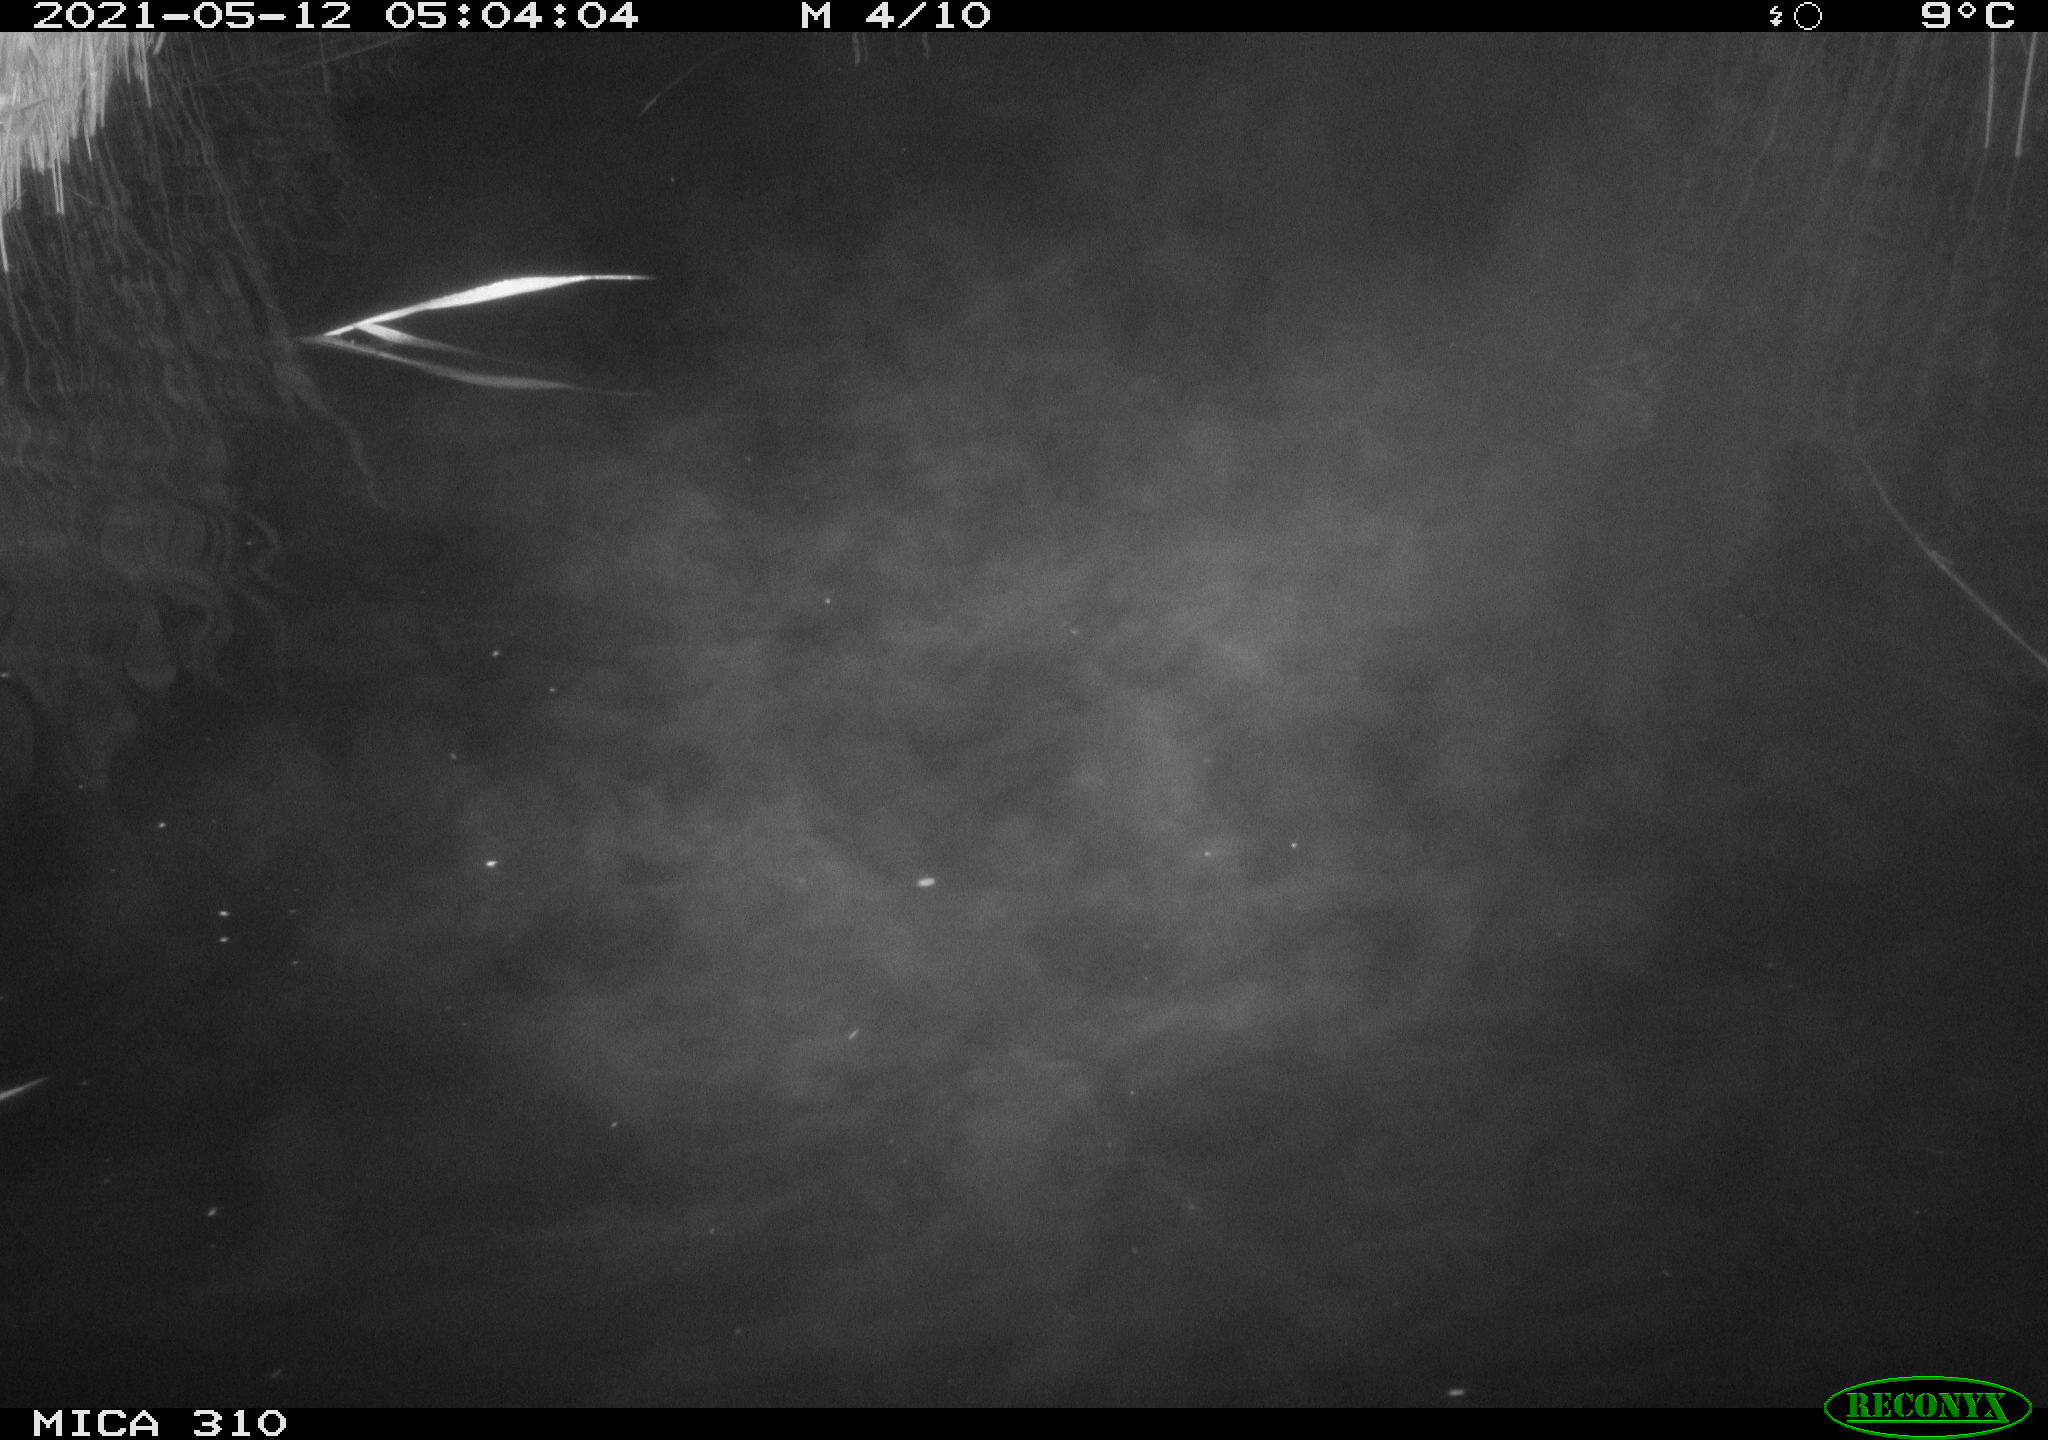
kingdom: Animalia
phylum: Chordata
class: Aves
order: Anseriformes
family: Anatidae
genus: Anas
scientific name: Anas platyrhynchos
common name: Mallard
